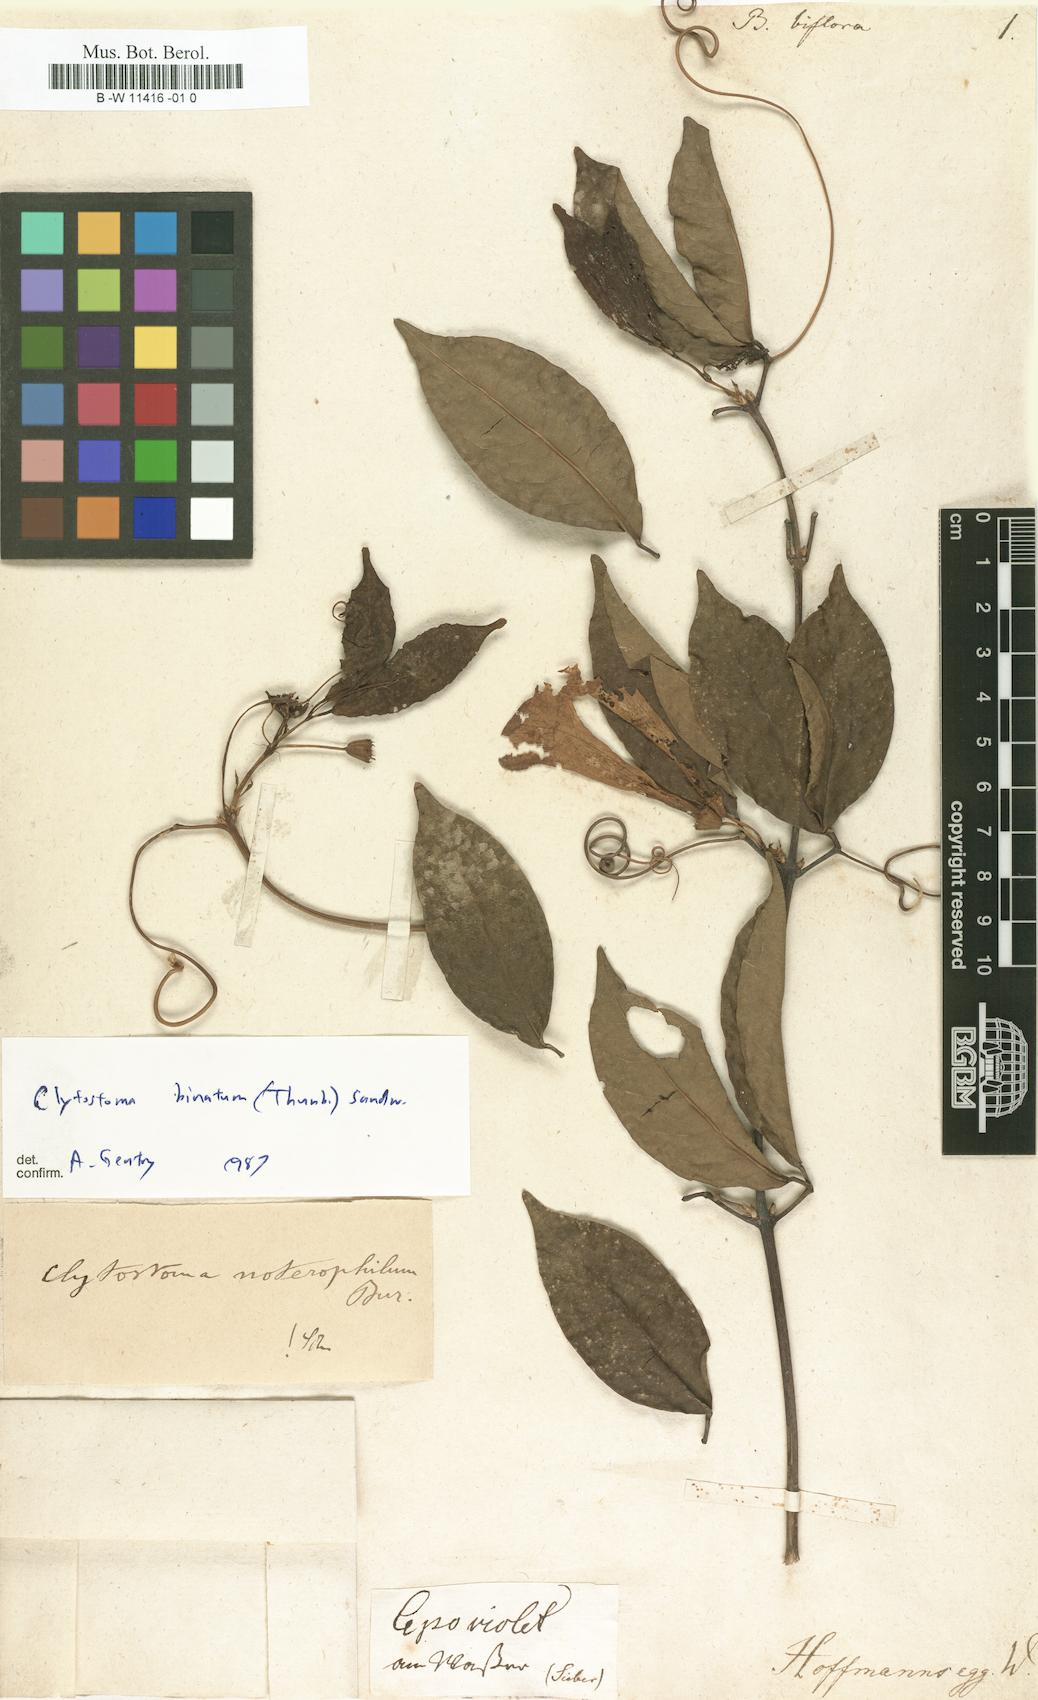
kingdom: Plantae
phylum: Tracheophyta
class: Magnoliopsida
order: Lamiales
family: Bignoniaceae
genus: Bignonia
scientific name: Bignonia
